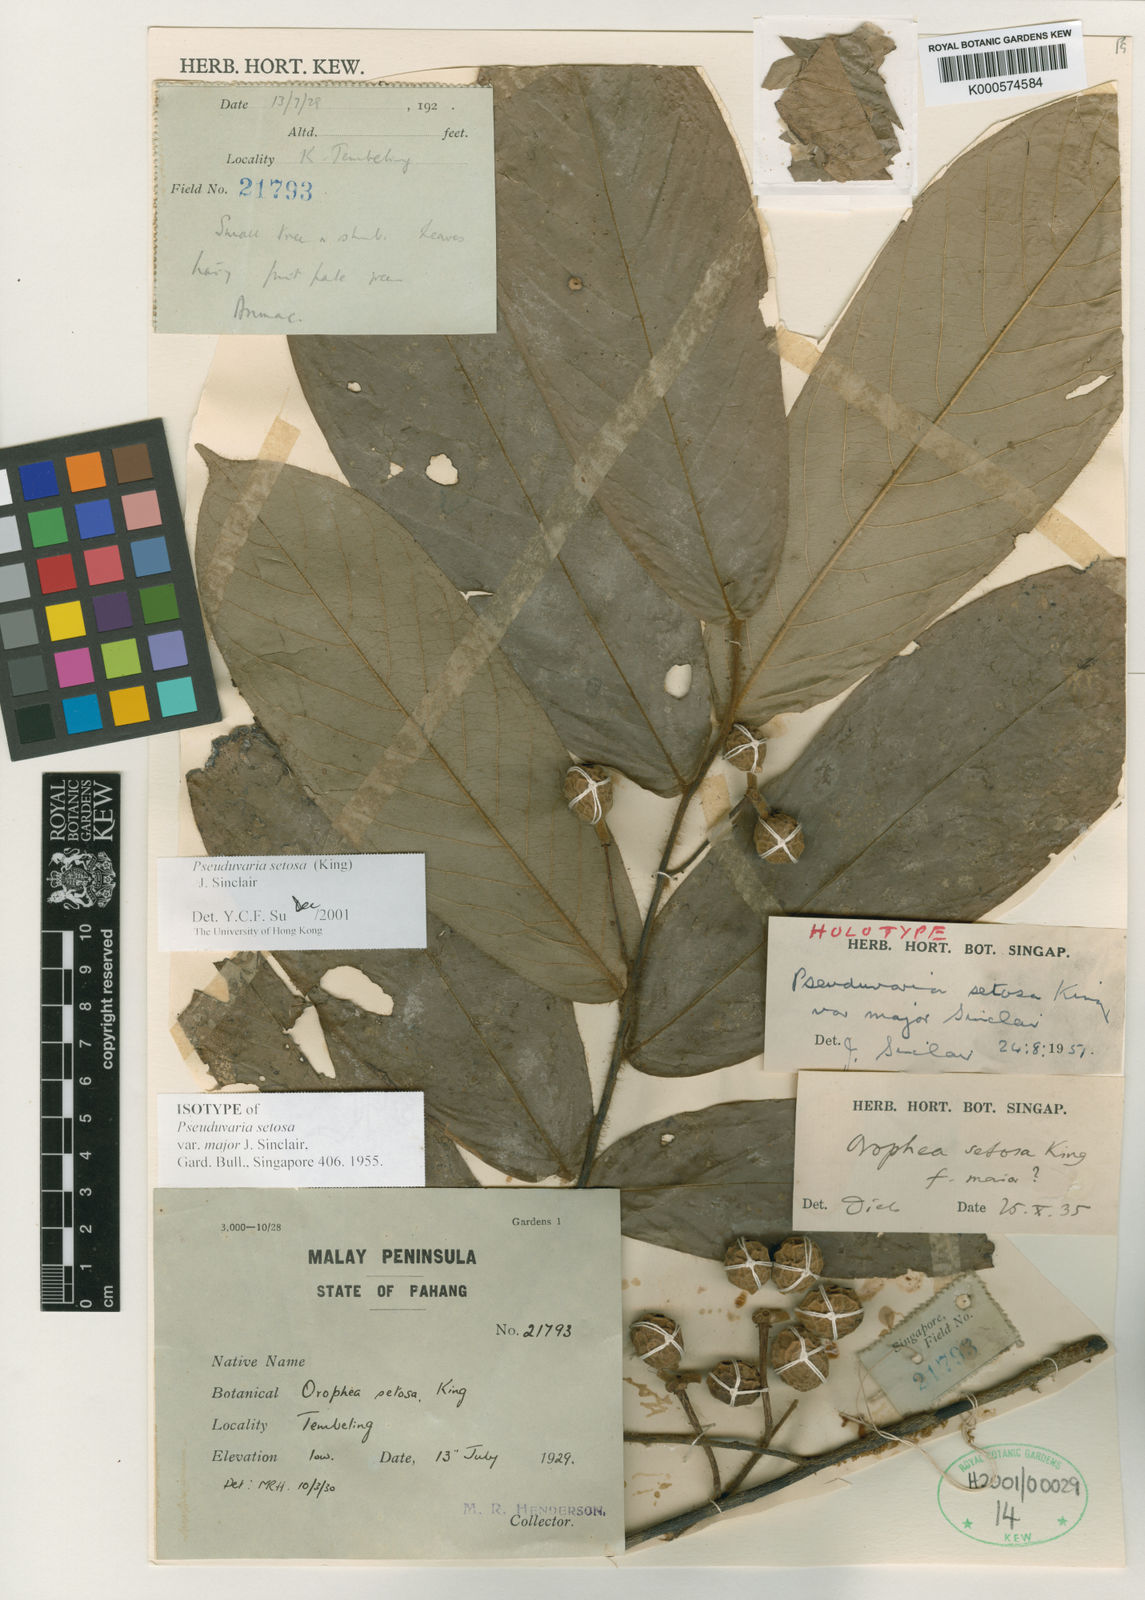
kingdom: Plantae
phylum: Tracheophyta
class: Magnoliopsida
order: Magnoliales
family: Annonaceae
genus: Pseuduvaria
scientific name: Pseuduvaria setosa
